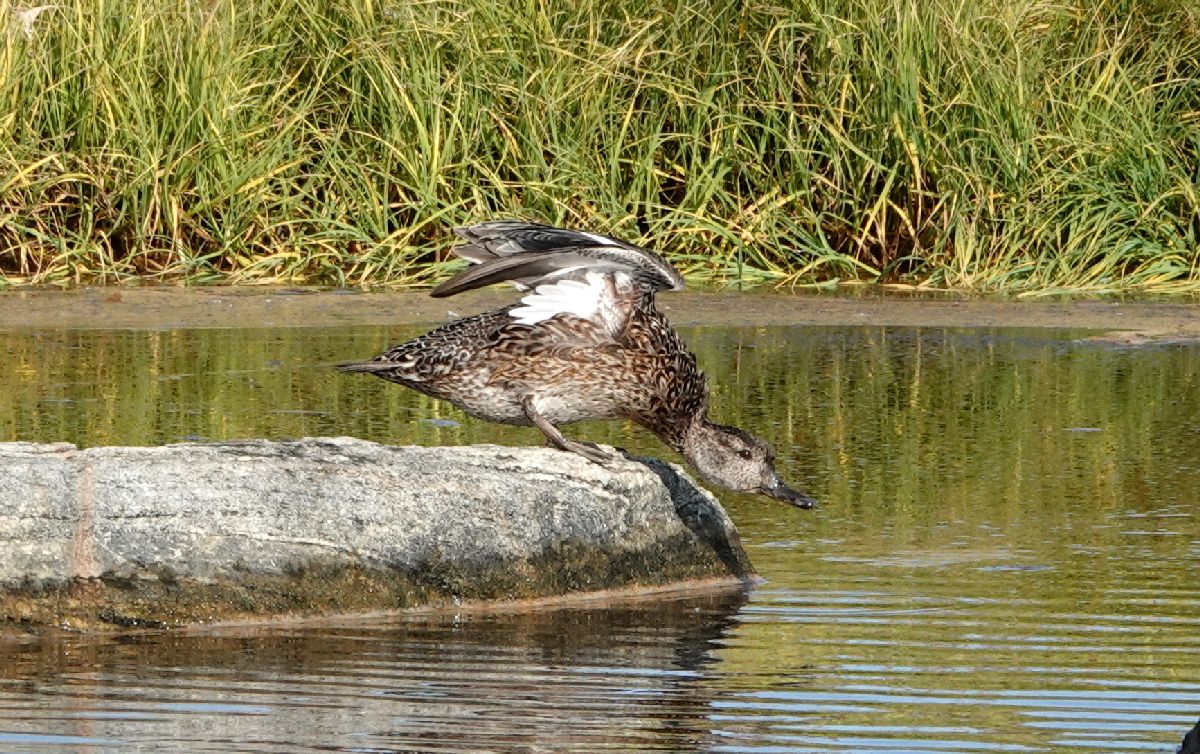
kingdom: Animalia
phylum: Chordata
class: Aves
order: Anseriformes
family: Anatidae
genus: Anas
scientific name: Anas crecca
